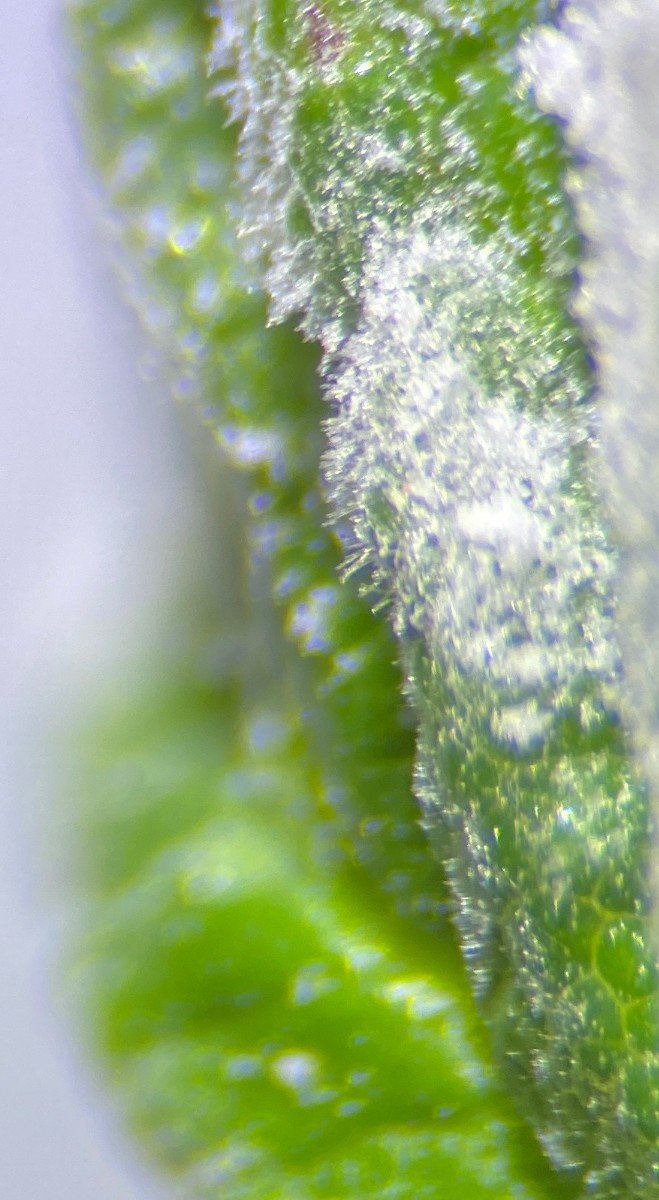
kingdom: Fungi
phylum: Ascomycota
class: Leotiomycetes
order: Helotiales
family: Erysiphaceae
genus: Podosphaera
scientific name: Podosphaera filipendulae
